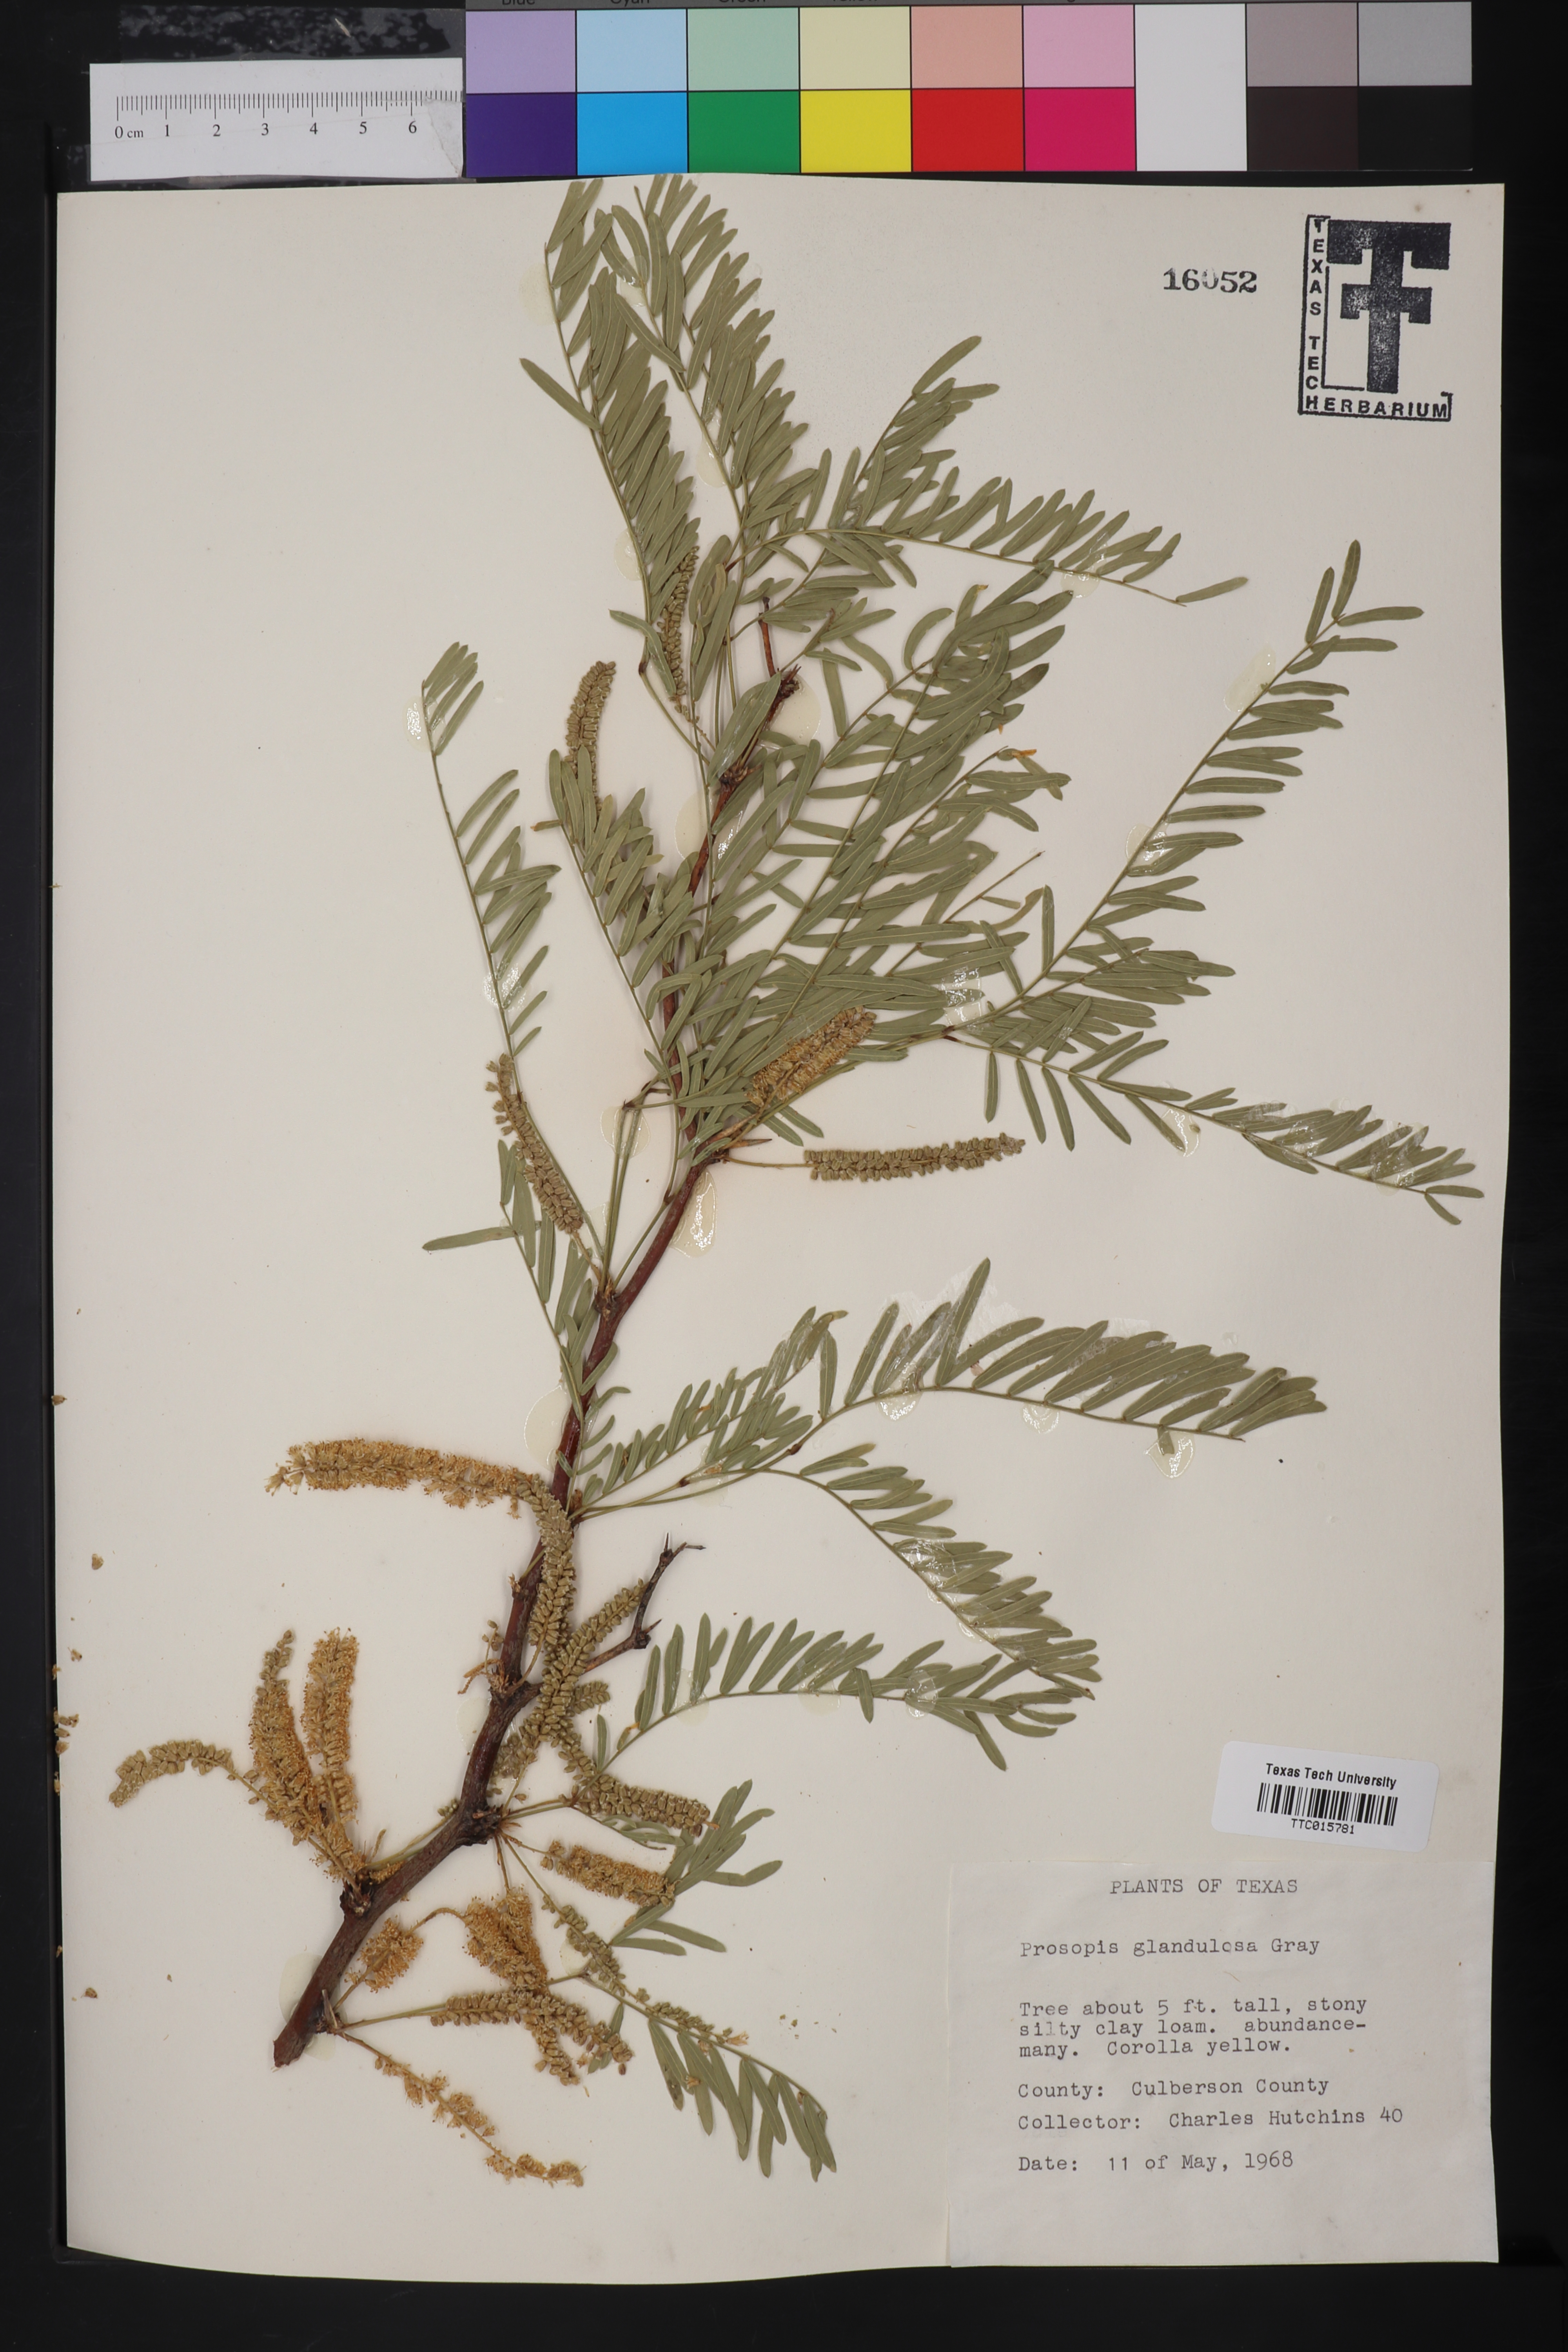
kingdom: Plantae
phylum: Tracheophyta
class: Magnoliopsida
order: Fabales
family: Fabaceae
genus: Prosopis
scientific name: Prosopis glandulosa
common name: Honey mesquite
